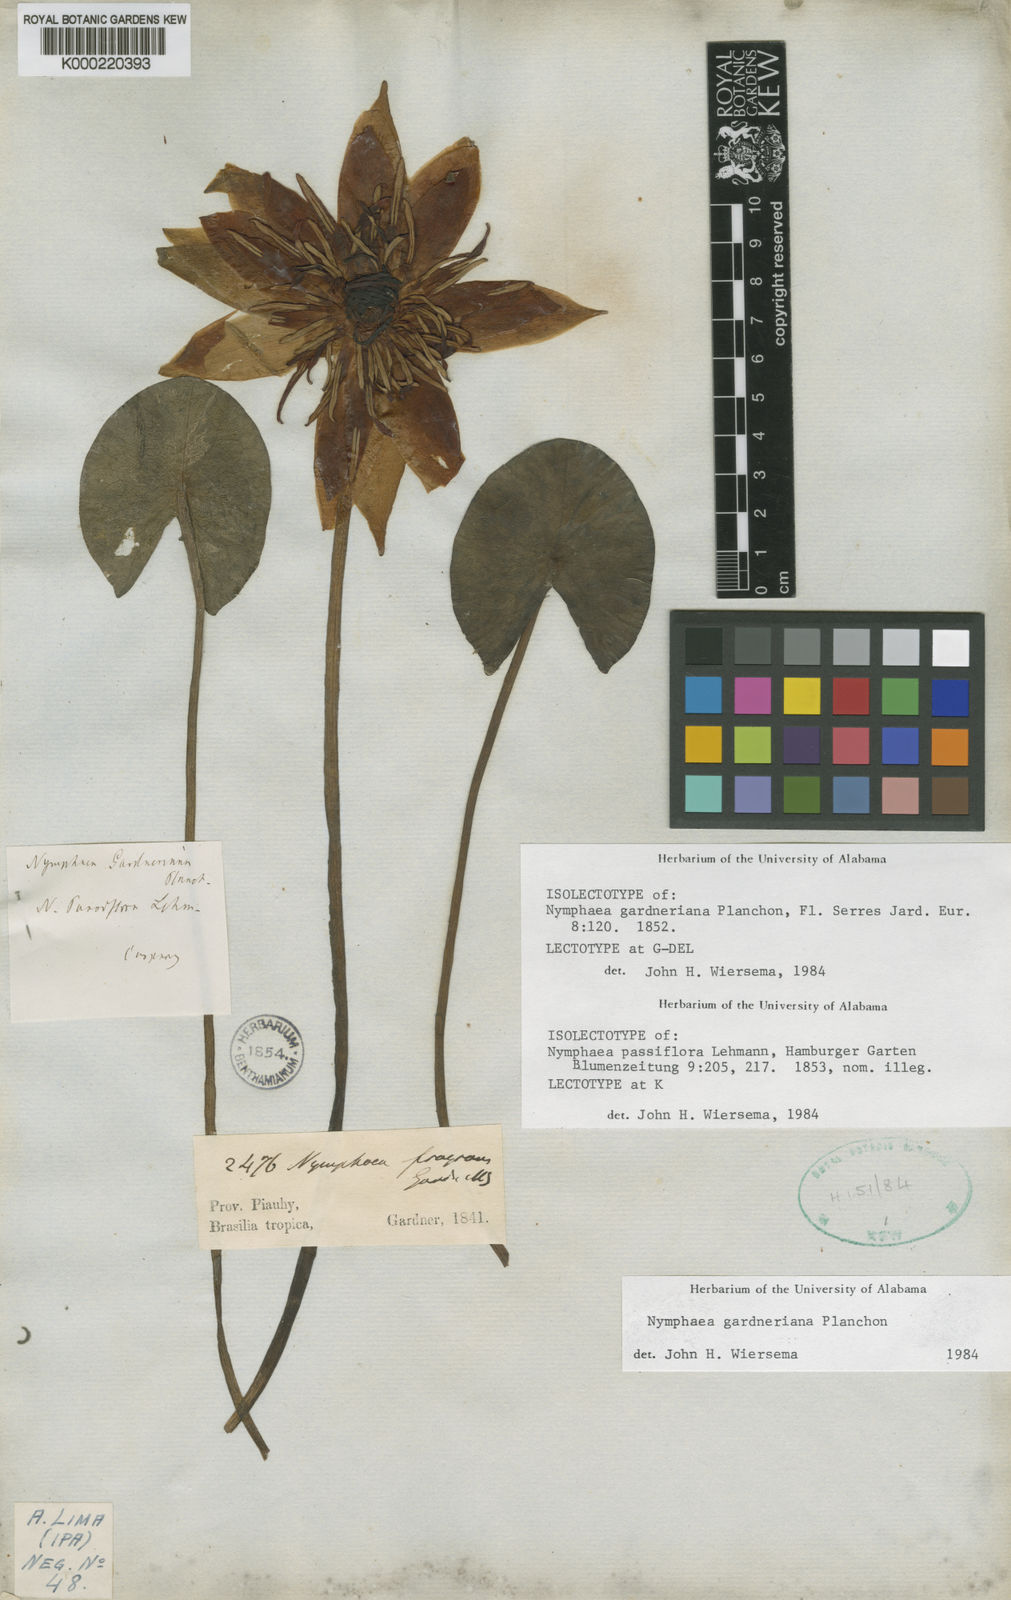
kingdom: Plantae
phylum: Tracheophyta
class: Magnoliopsida
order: Nymphaeales
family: Nymphaeaceae
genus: Nymphaea
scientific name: Nymphaea gardneriana
